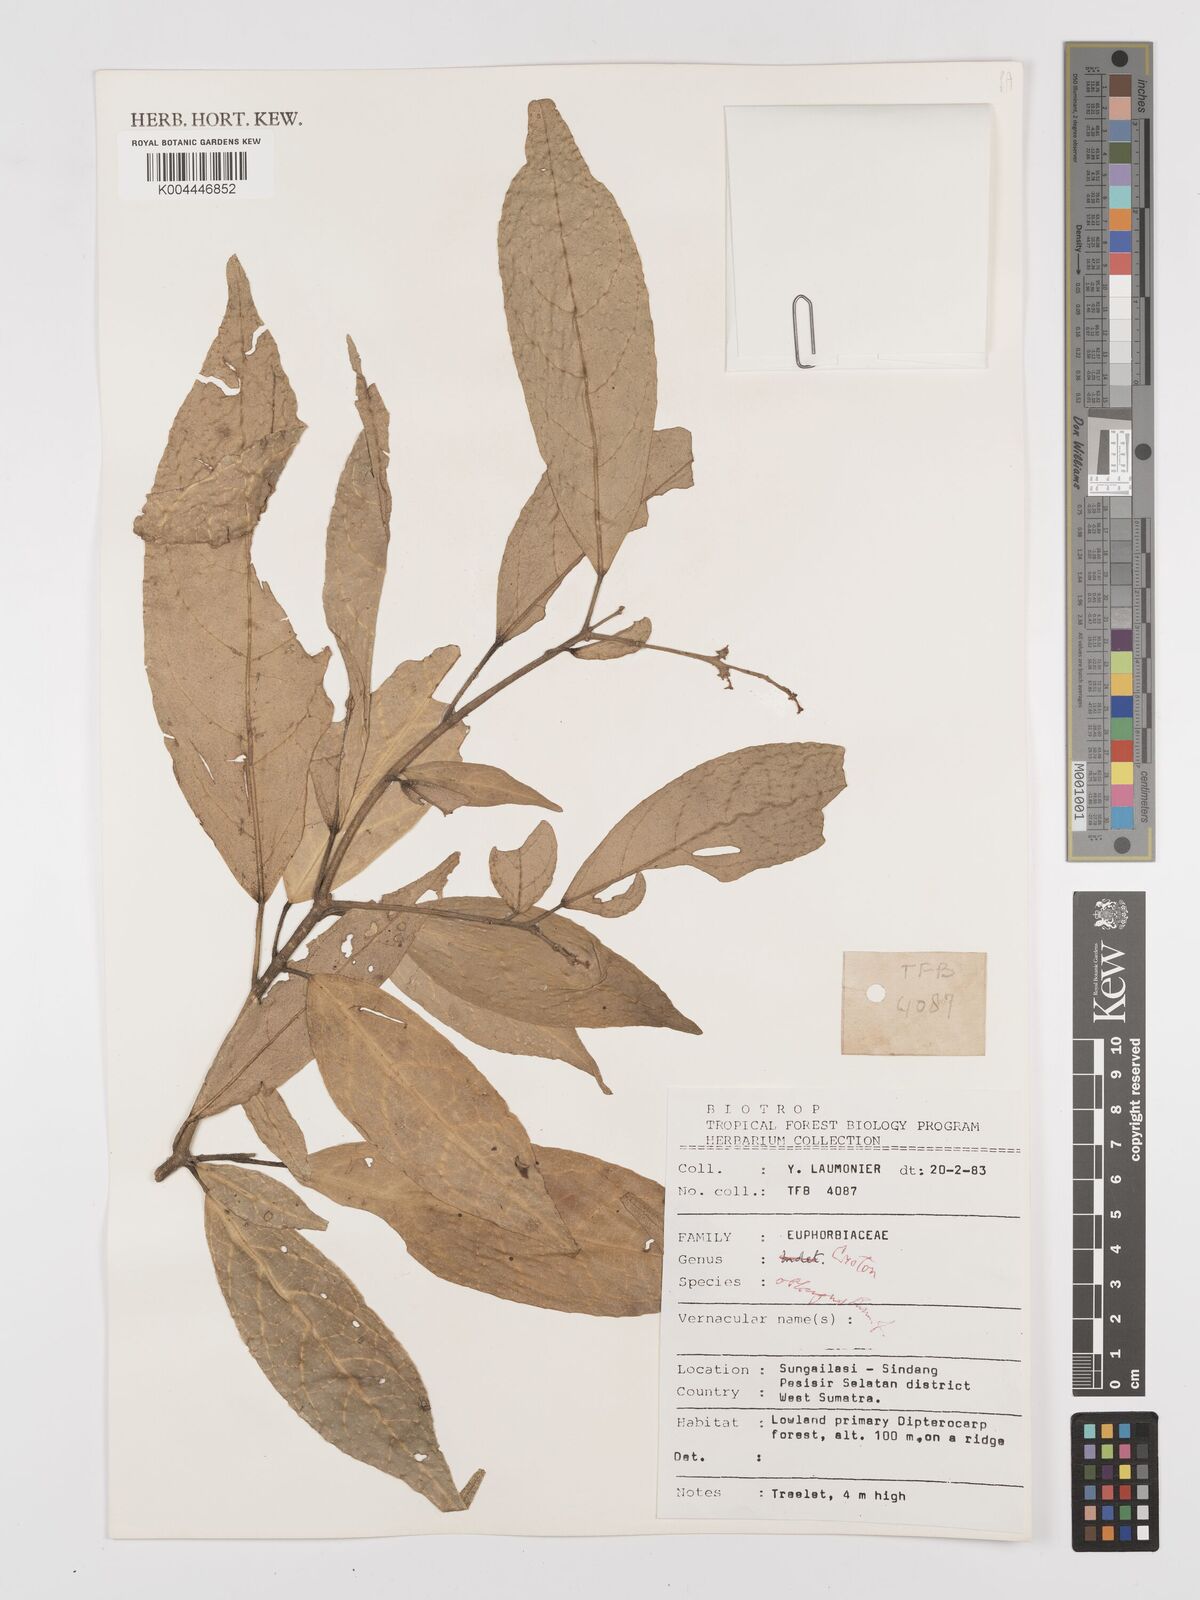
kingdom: Plantae
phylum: Tracheophyta
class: Magnoliopsida
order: Malpighiales
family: Euphorbiaceae
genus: Croton
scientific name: Croton oblongus
